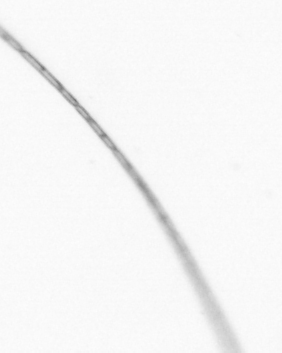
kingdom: Chromista
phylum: Ochrophyta
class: Bacillariophyceae
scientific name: Bacillariophyceae
